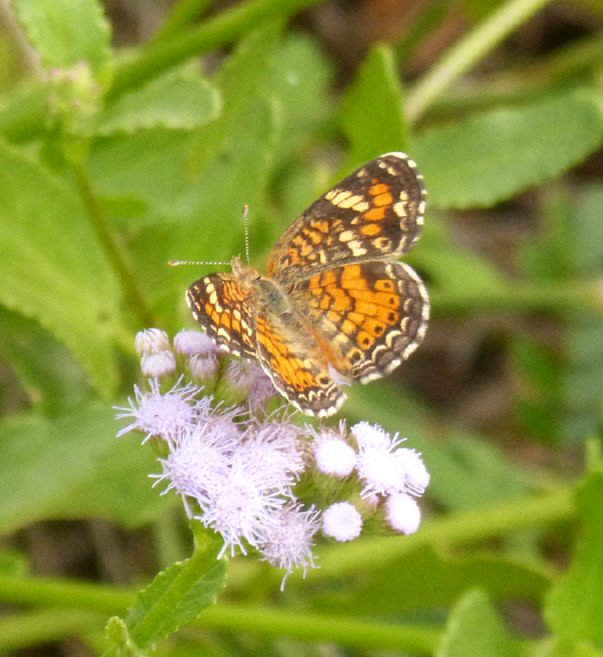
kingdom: Animalia
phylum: Arthropoda
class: Insecta
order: Lepidoptera
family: Nymphalidae
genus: Phyciodes
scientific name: Phyciodes phaon
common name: Phaon Crescent
